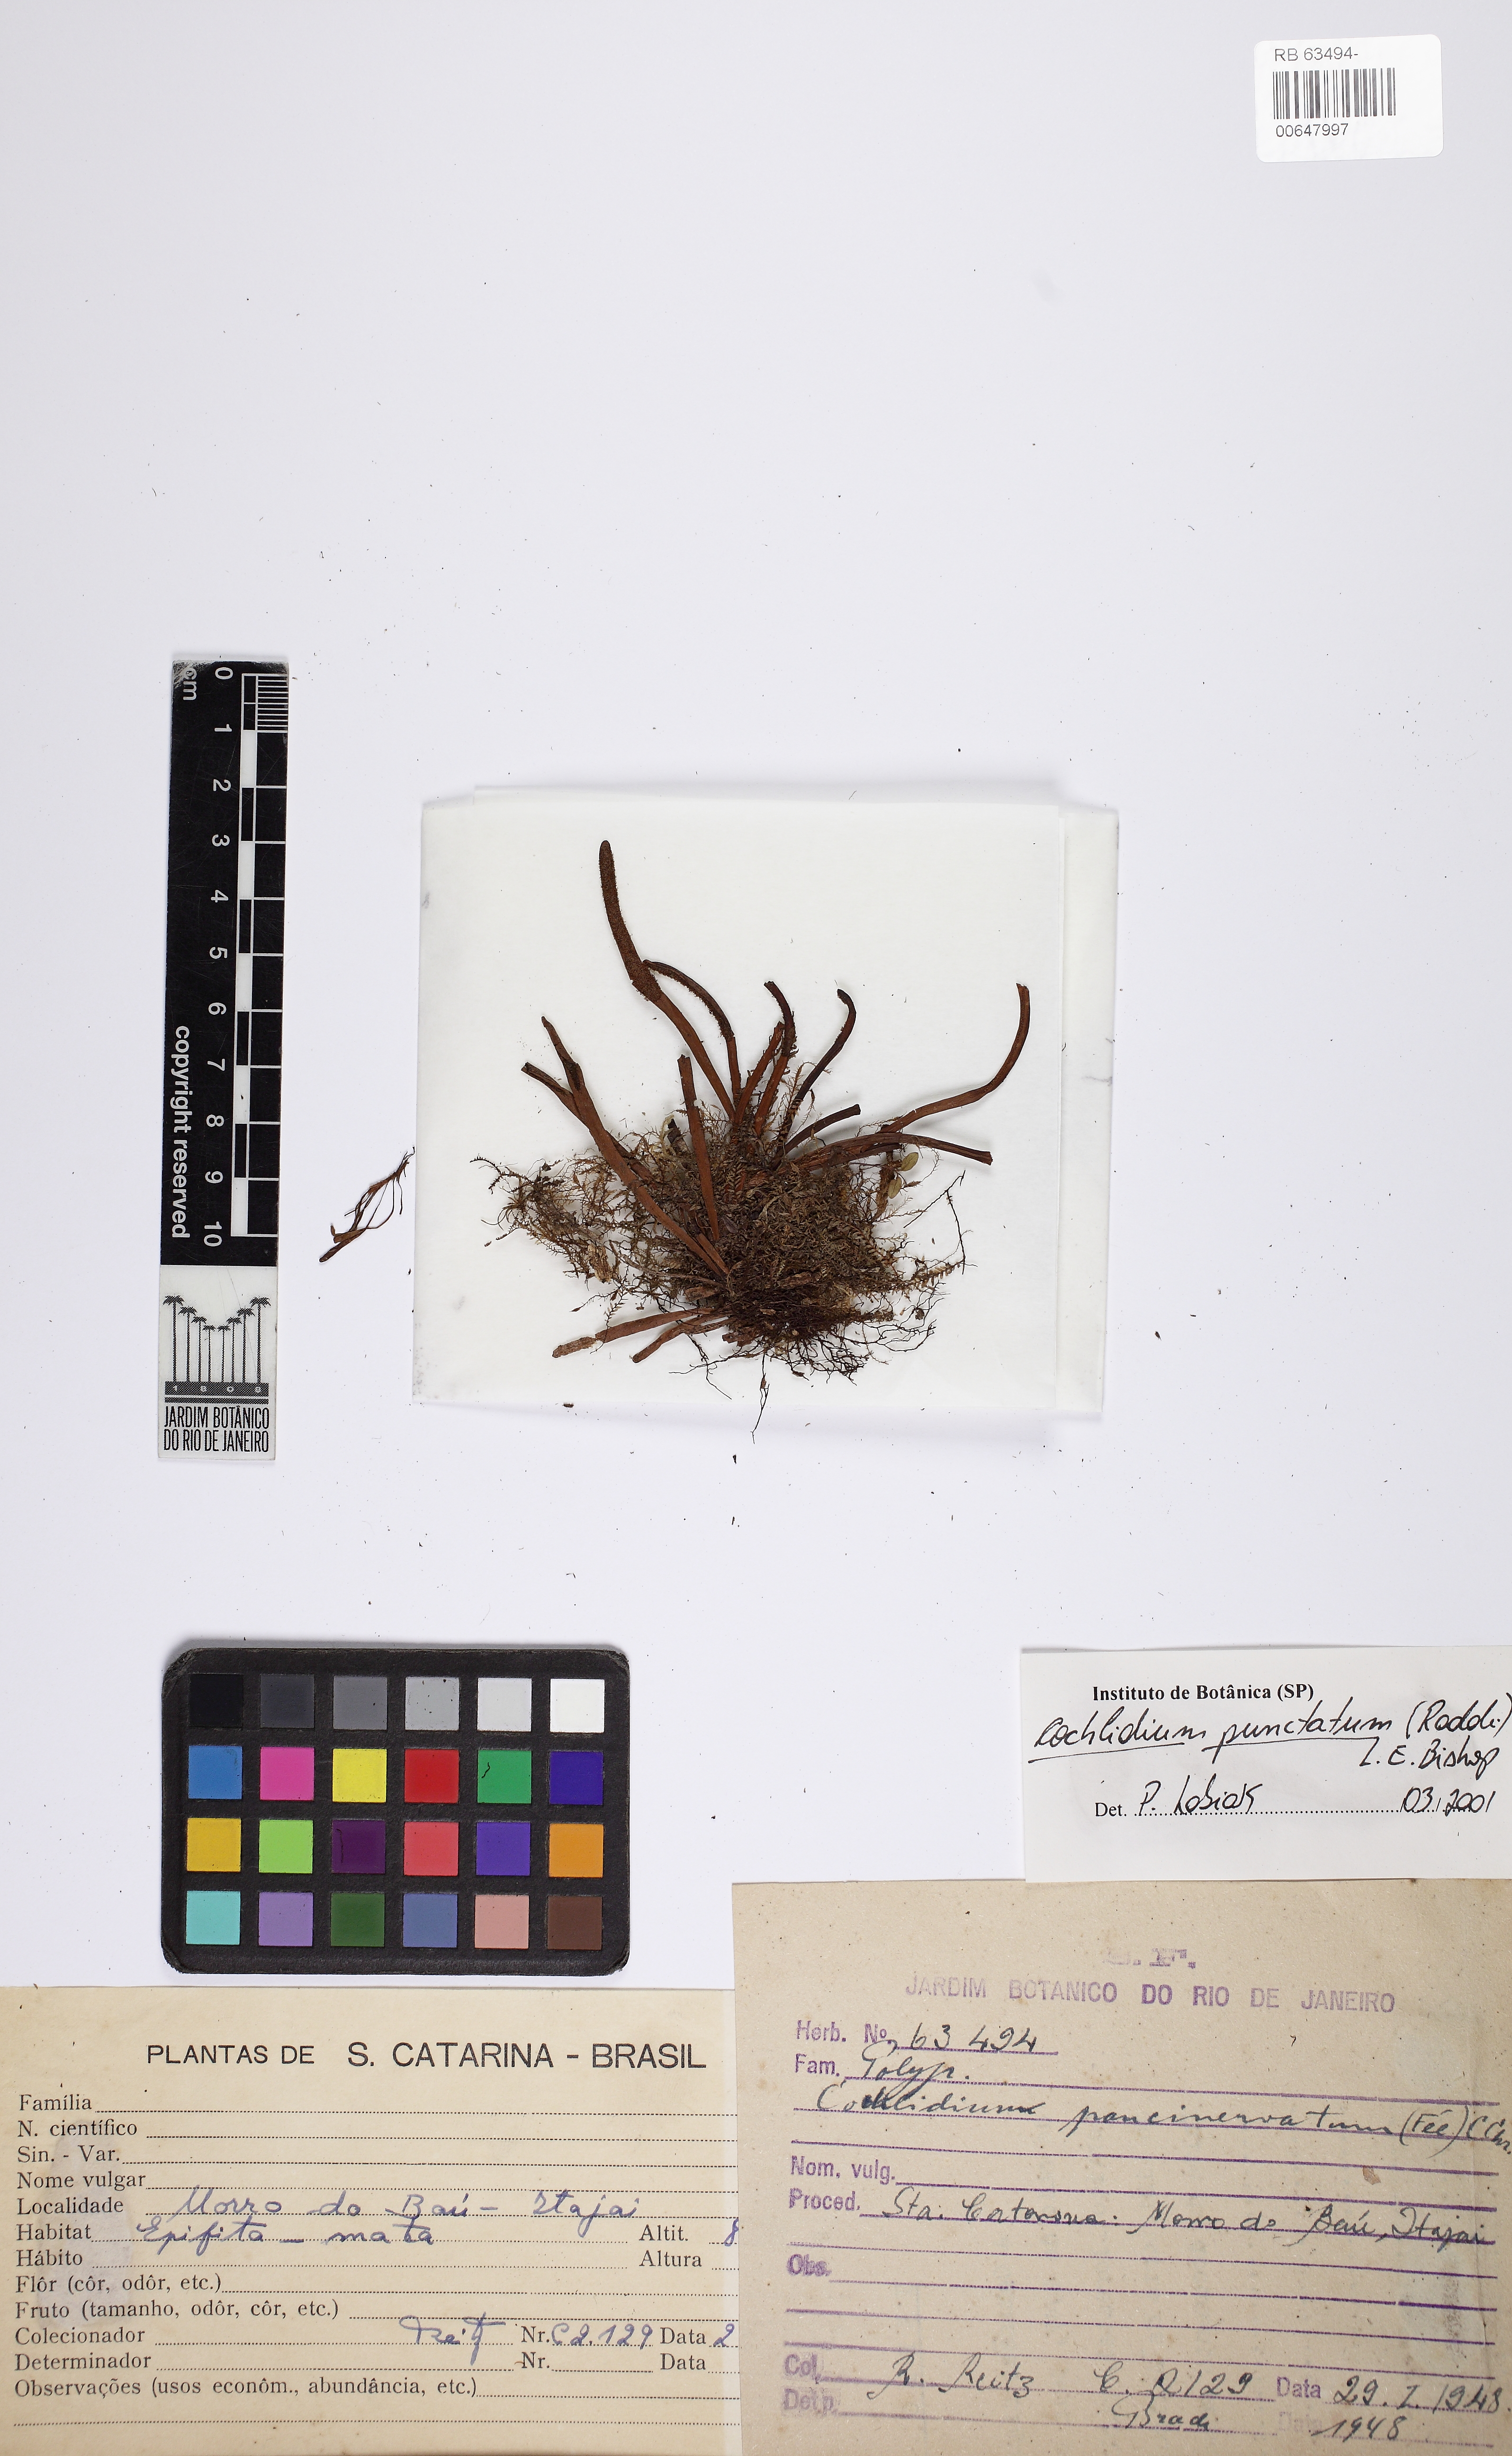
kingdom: Plantae
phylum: Tracheophyta
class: Polypodiopsida
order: Polypodiales
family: Polypodiaceae
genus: Cochlidium
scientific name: Cochlidium punctatum
